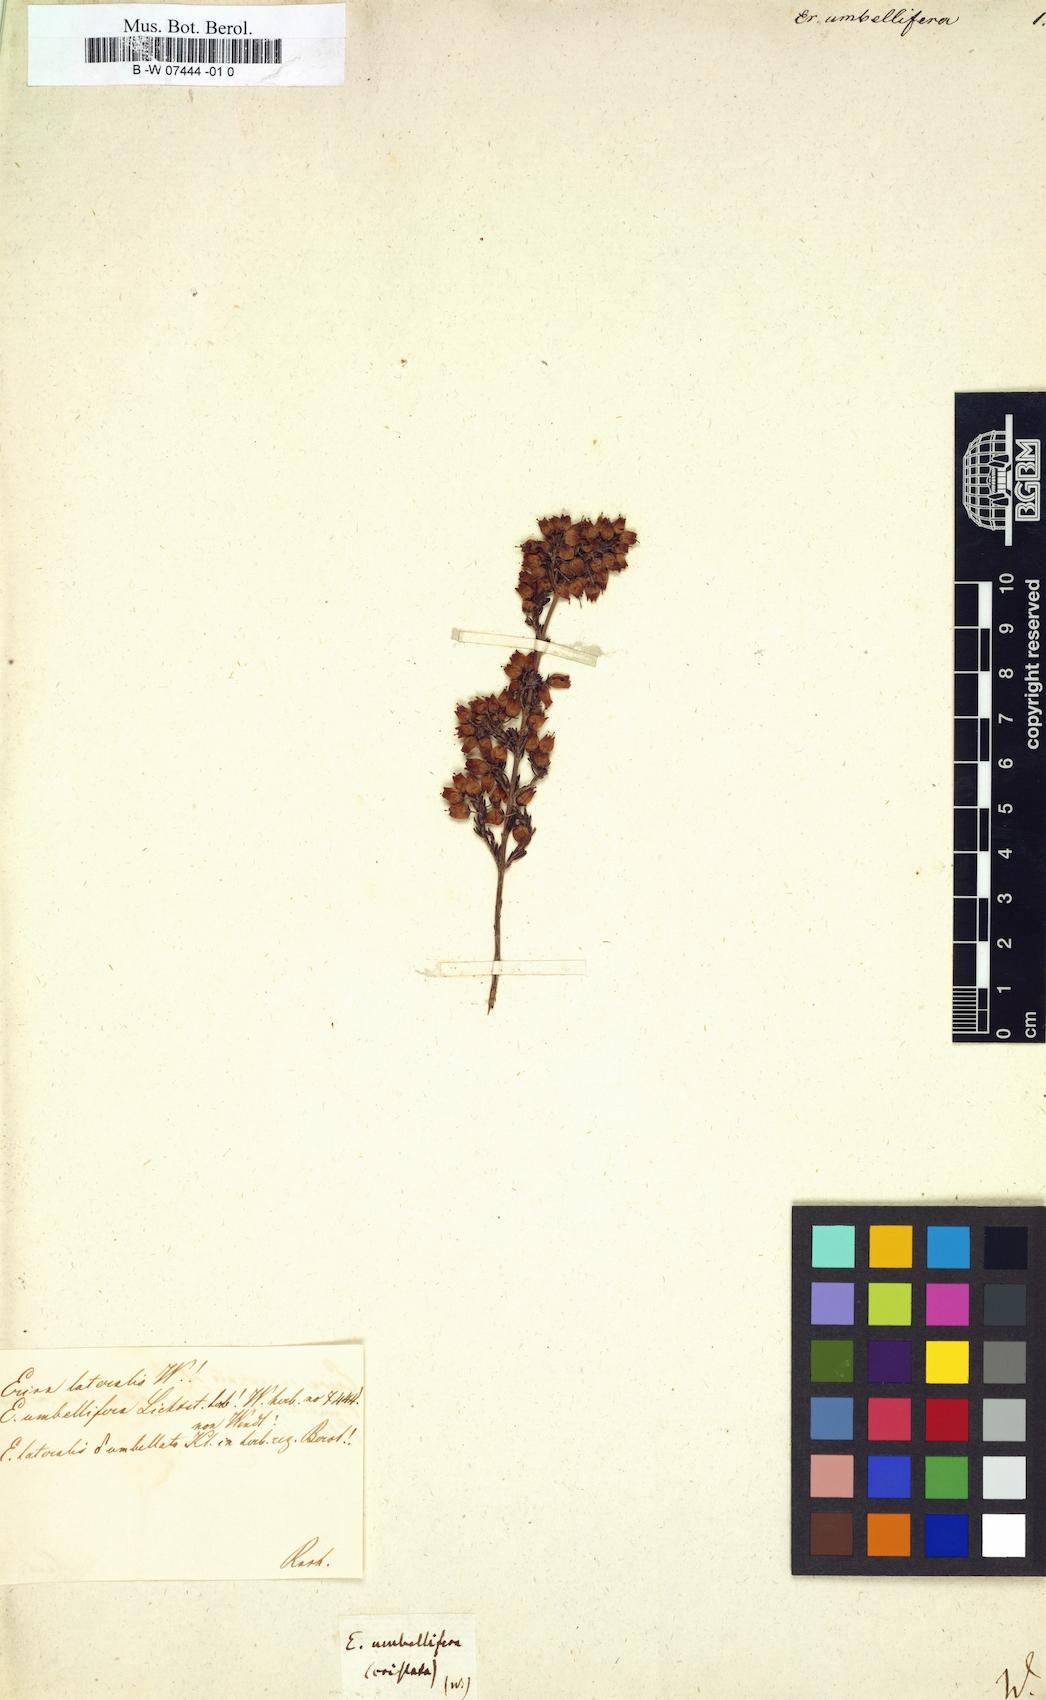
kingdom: Plantae
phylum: Tracheophyta
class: Magnoliopsida
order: Ericales
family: Ericaceae
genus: Erica
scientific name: Erica
